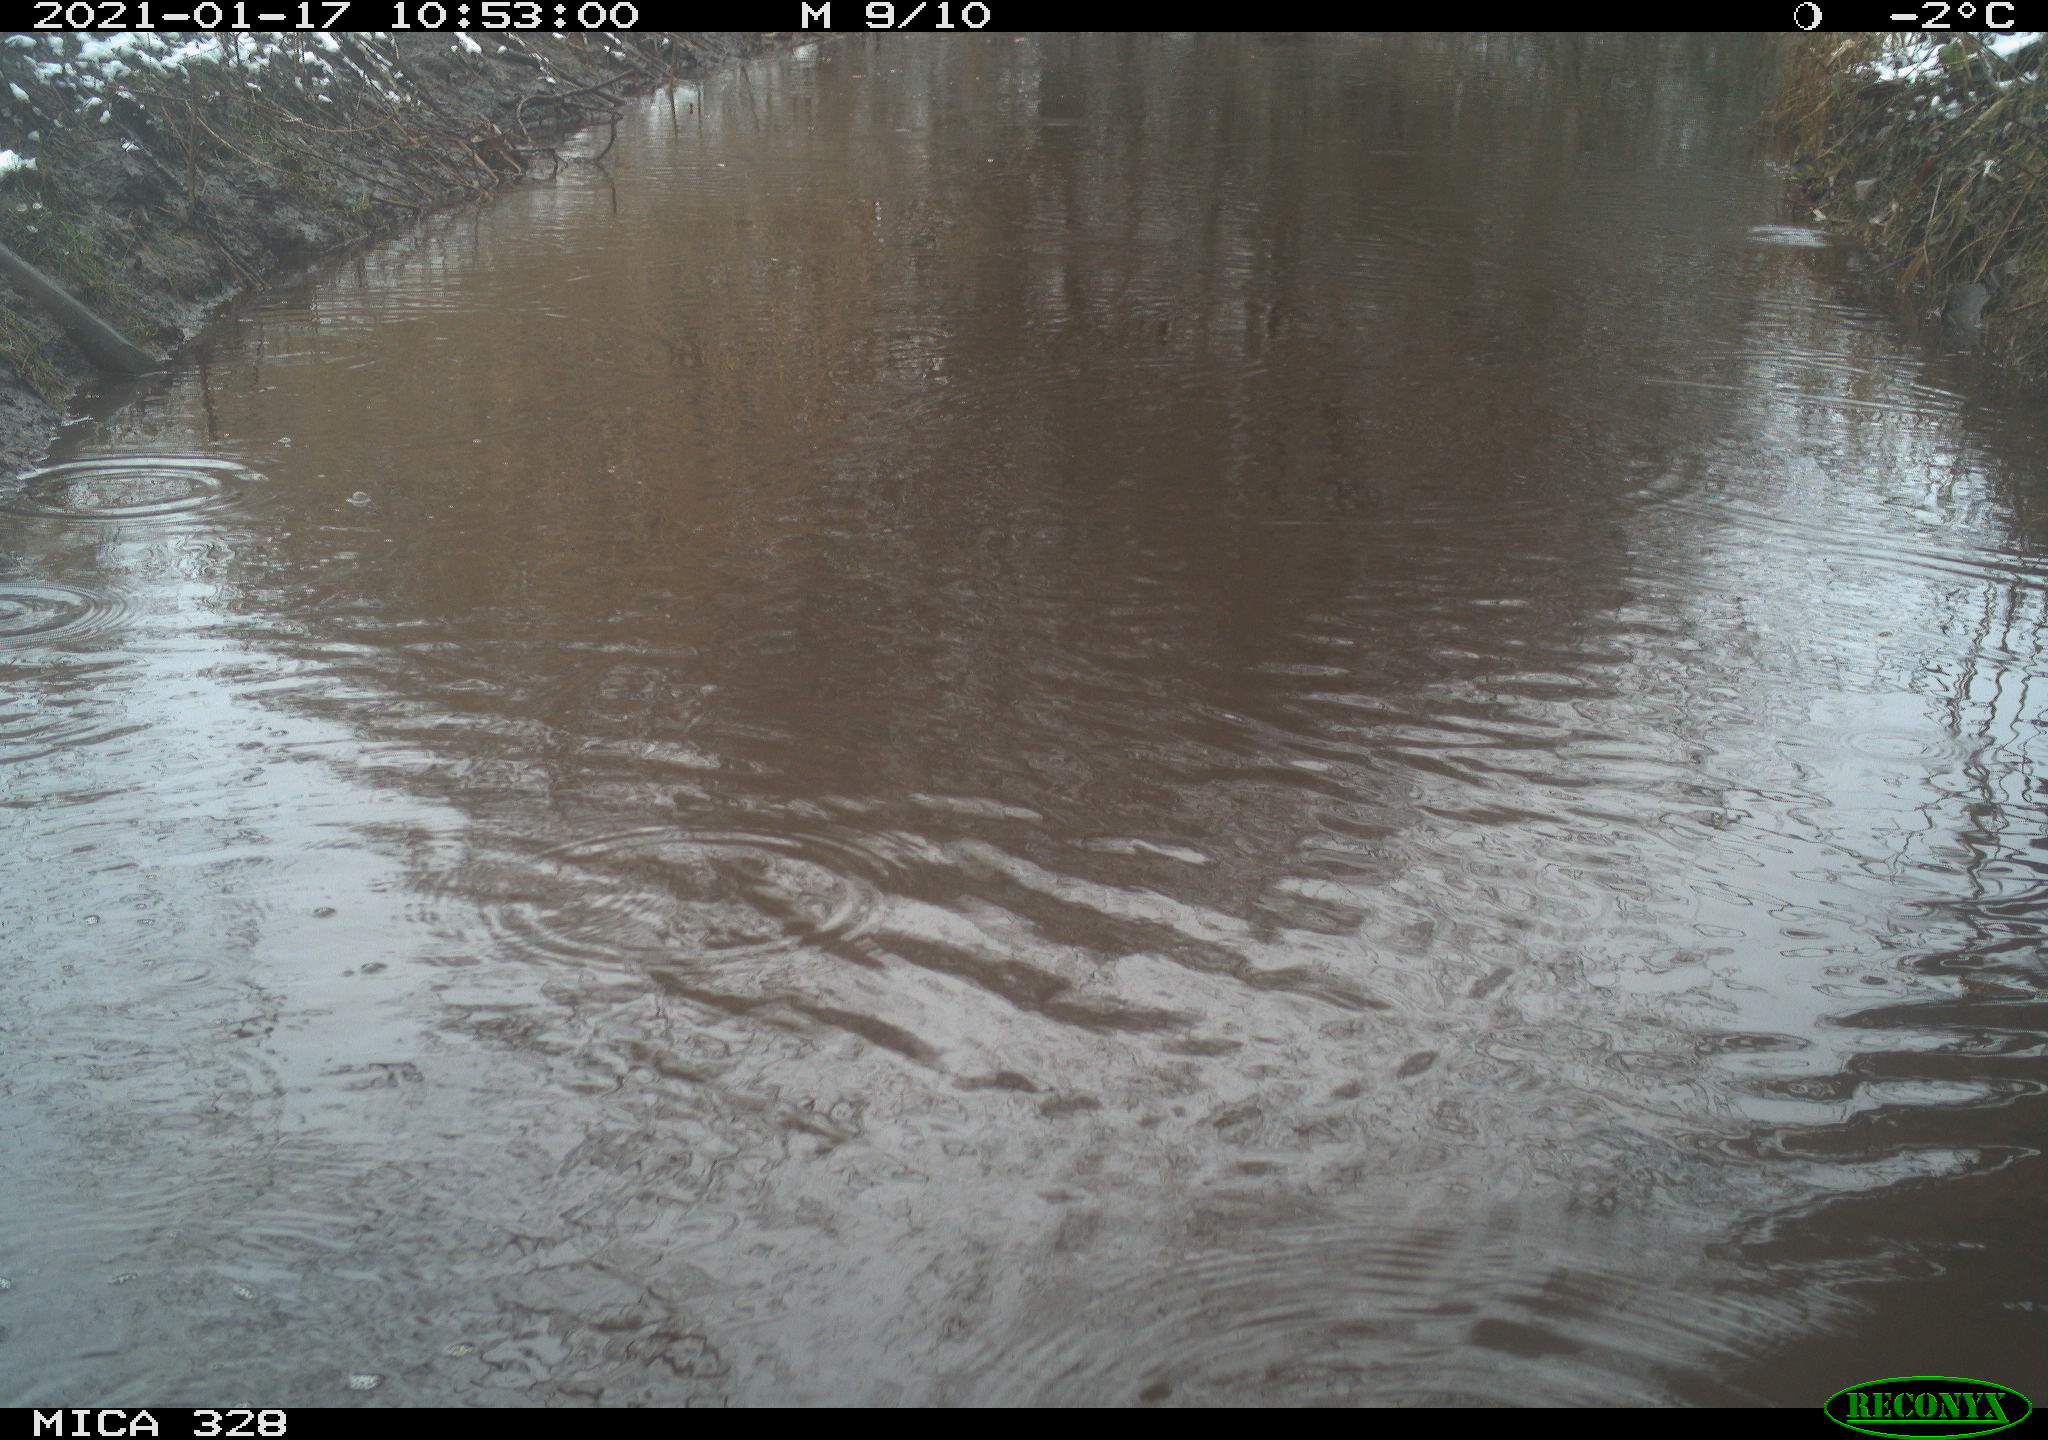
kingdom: Animalia
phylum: Chordata
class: Aves
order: Pelecaniformes
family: Ardeidae
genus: Ardea
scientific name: Ardea cinerea
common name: Grey heron
